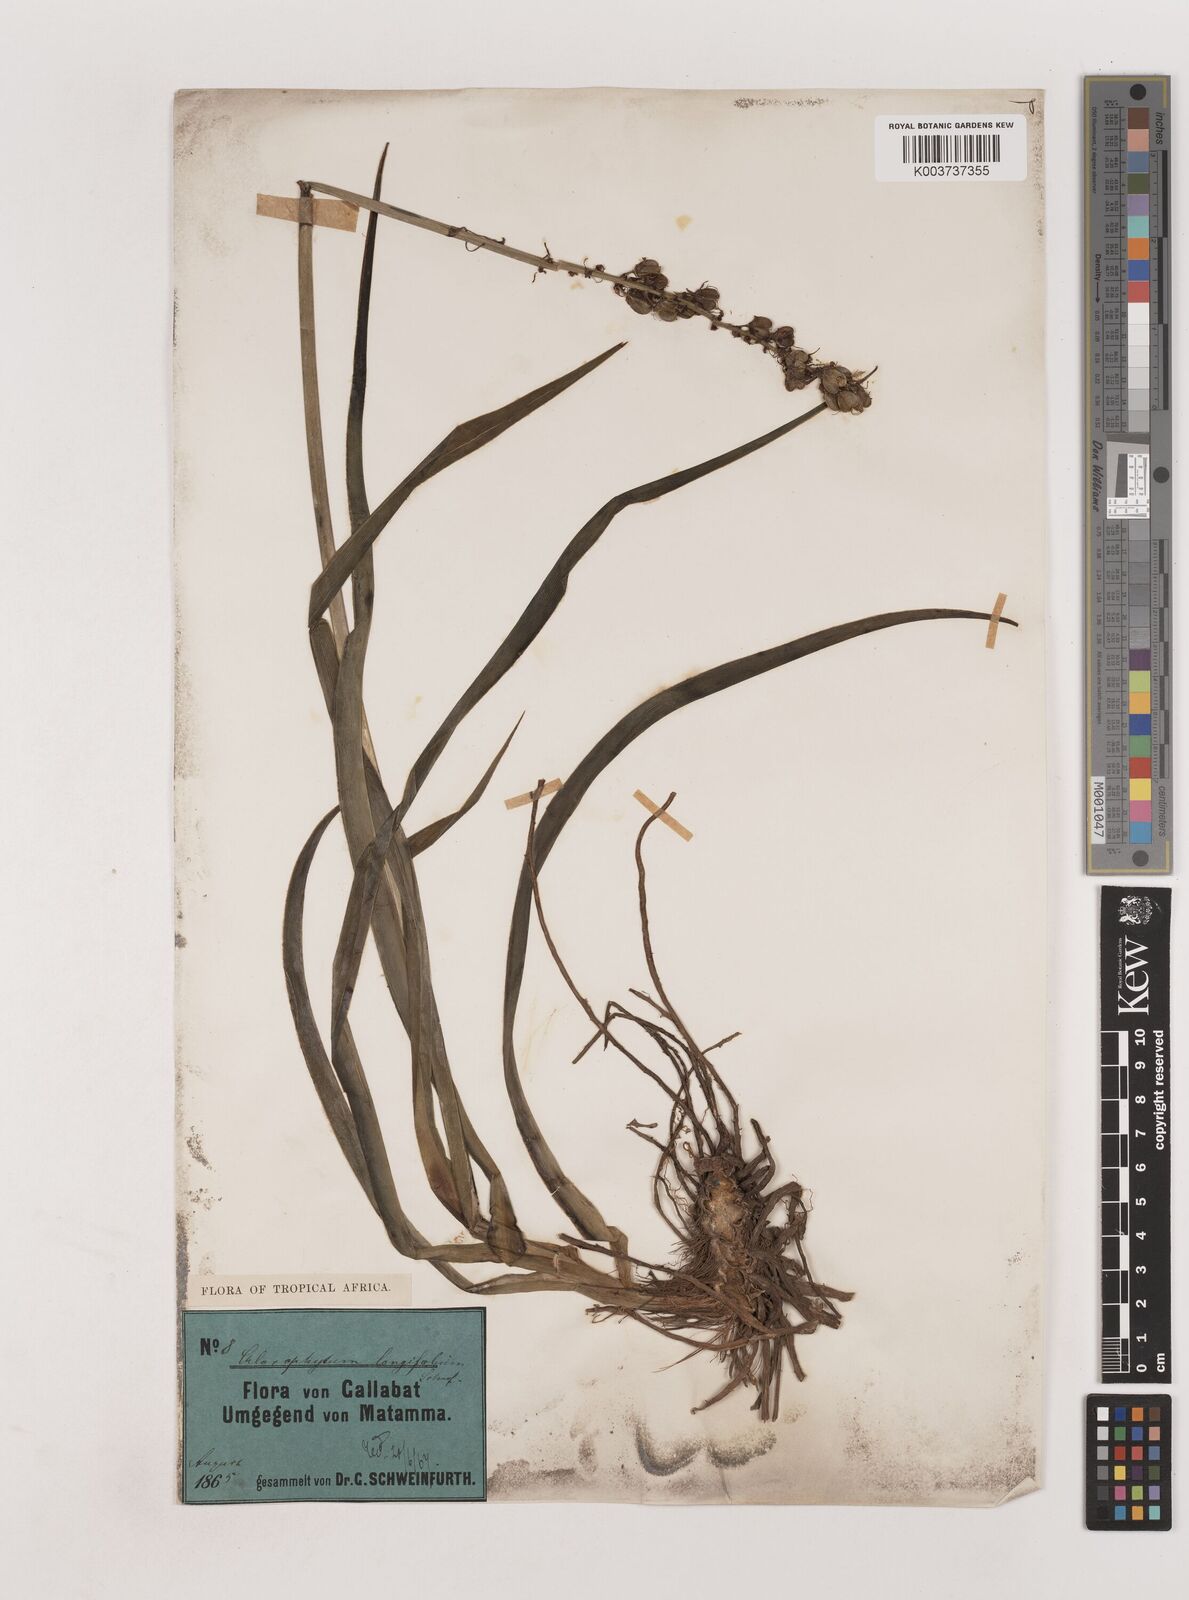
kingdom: Plantae
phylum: Tracheophyta
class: Liliopsida
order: Asparagales
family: Asparagaceae
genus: Chlorophytum
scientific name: Chlorophytum longifolium
